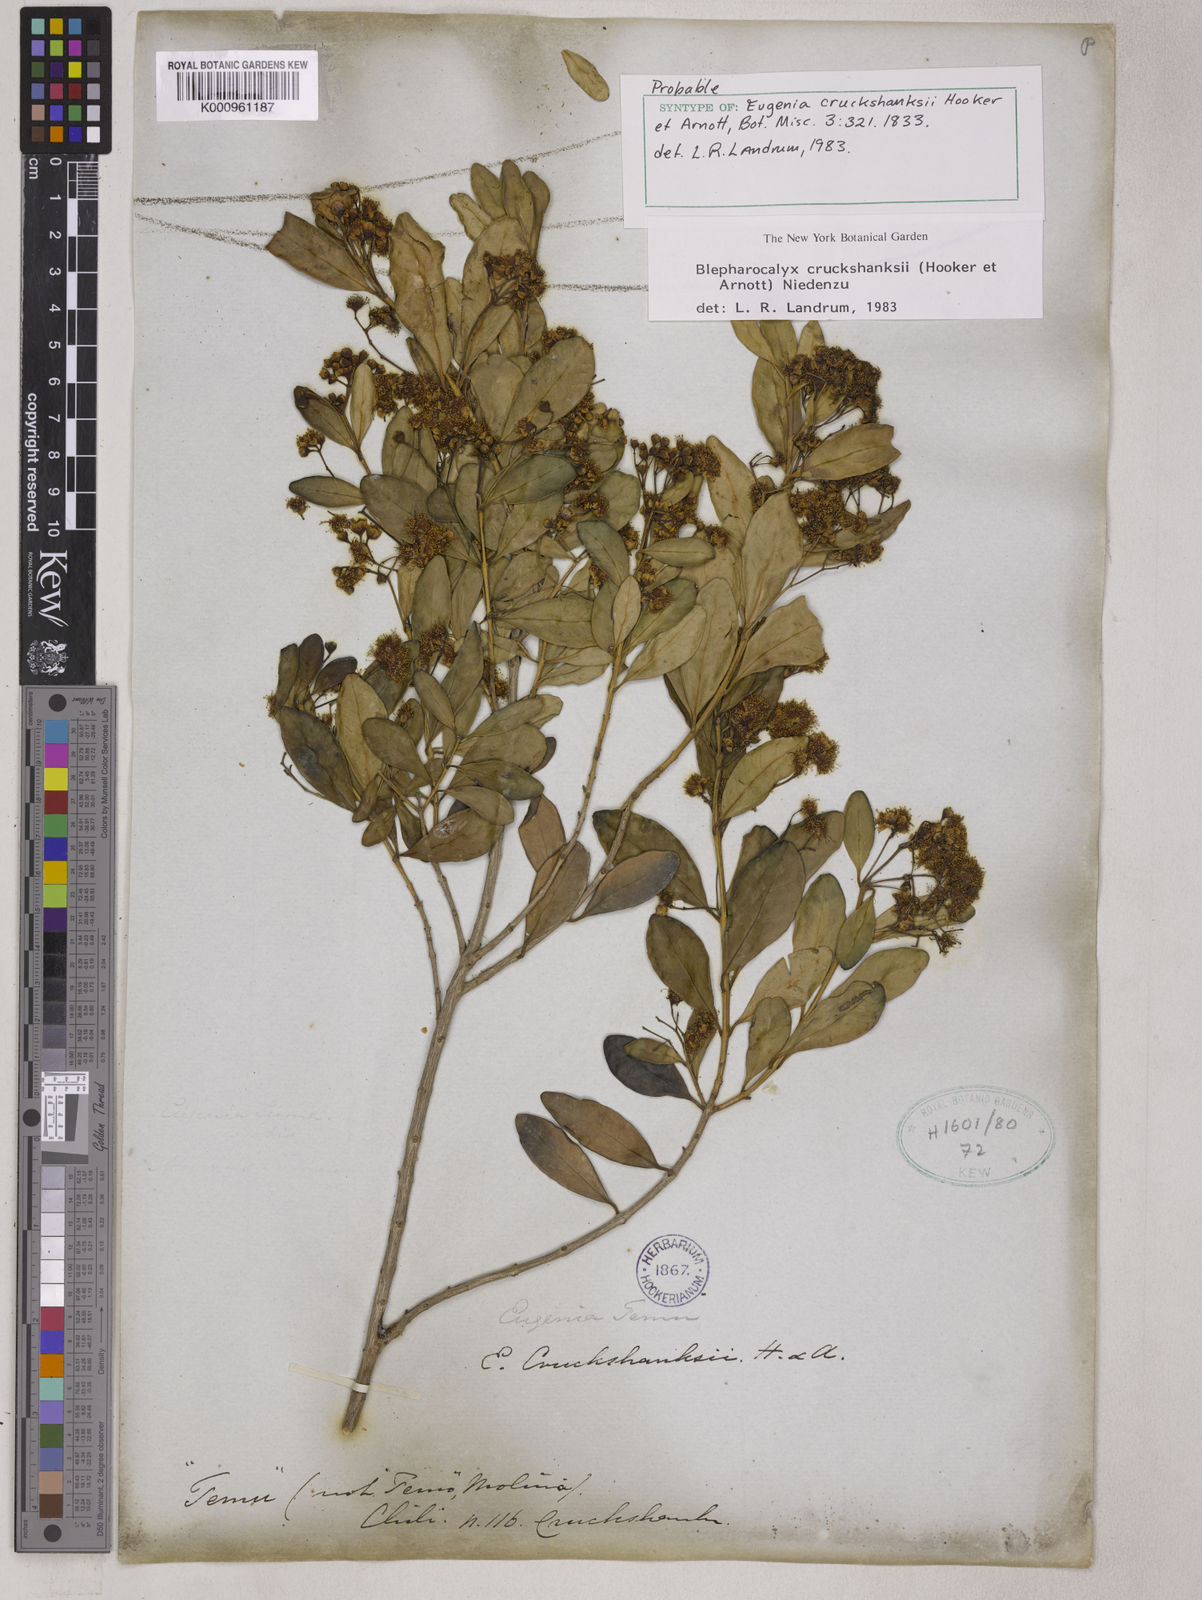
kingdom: Plantae
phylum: Tracheophyta
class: Magnoliopsida
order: Myrtales
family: Myrtaceae
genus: Blepharocalyx
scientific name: Blepharocalyx cruckshanksii
